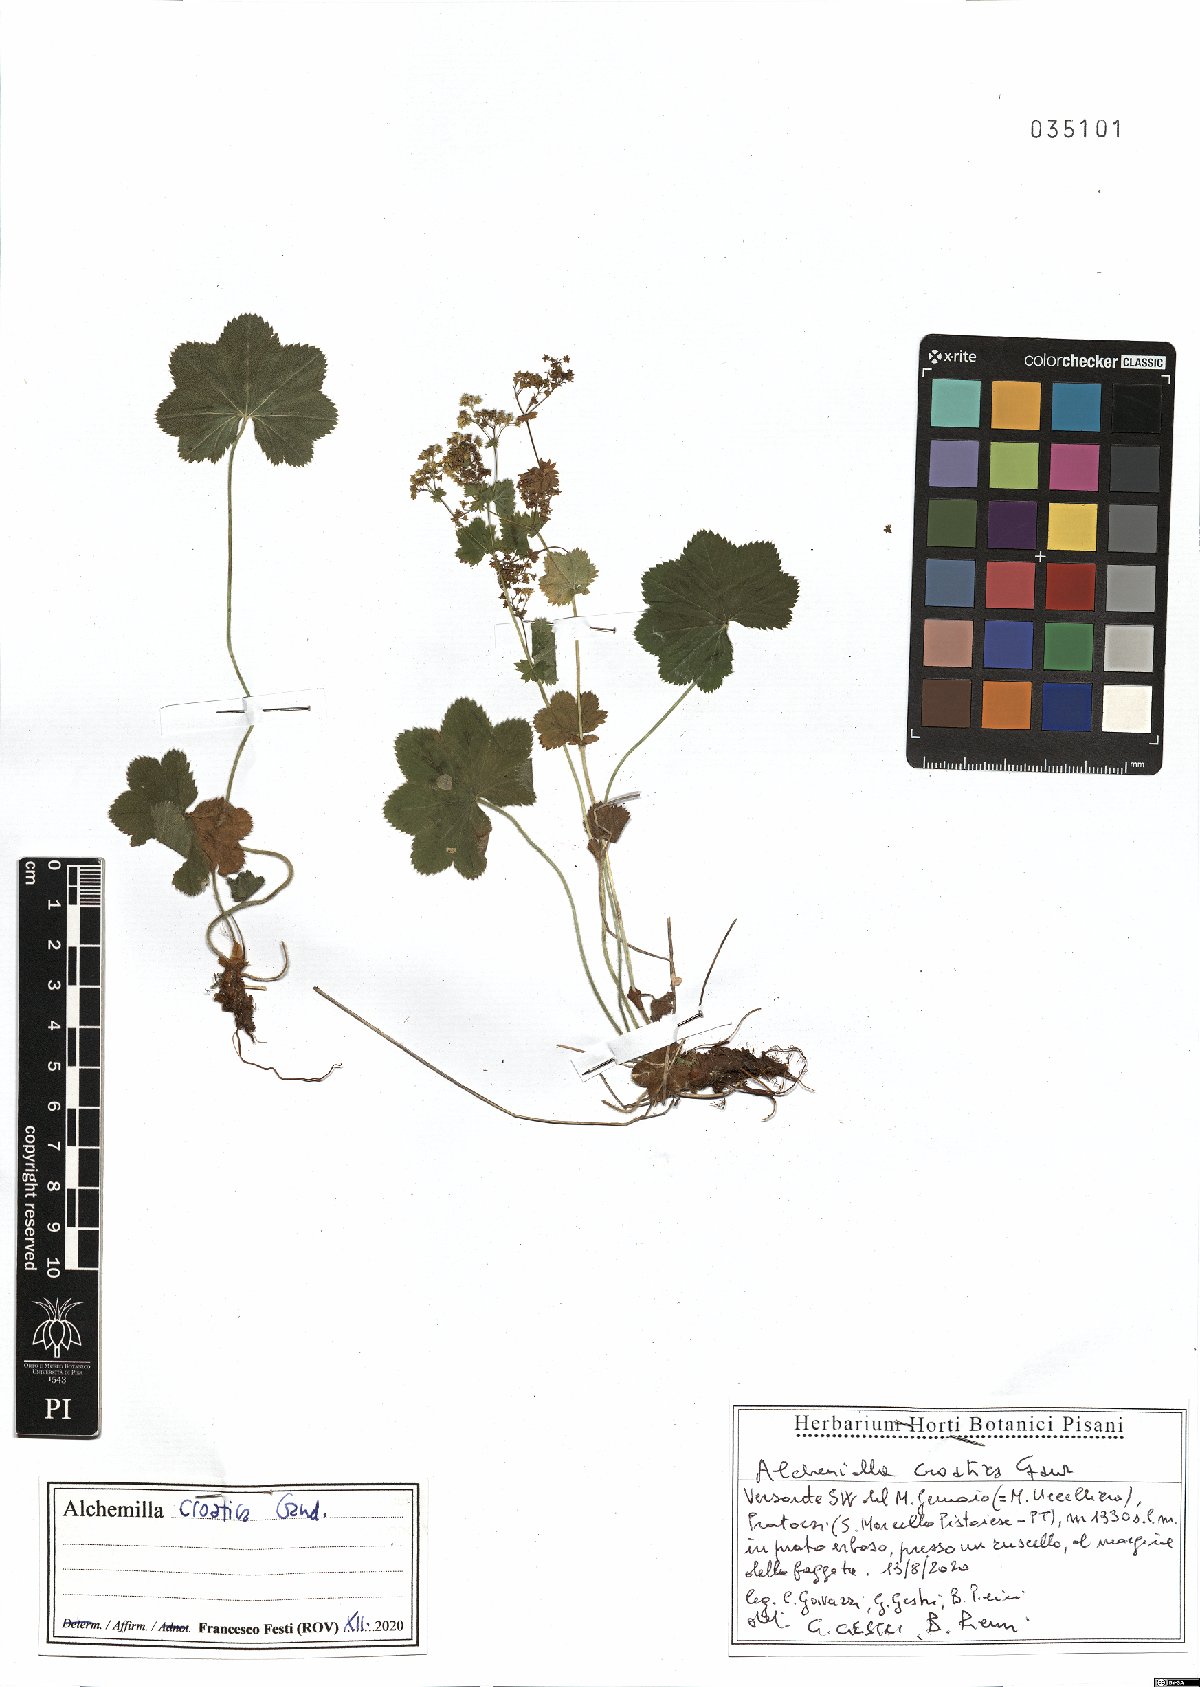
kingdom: Plantae
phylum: Tracheophyta
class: Magnoliopsida
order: Rosales
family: Rosaceae
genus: Alchemilla
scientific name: Alchemilla croatica
